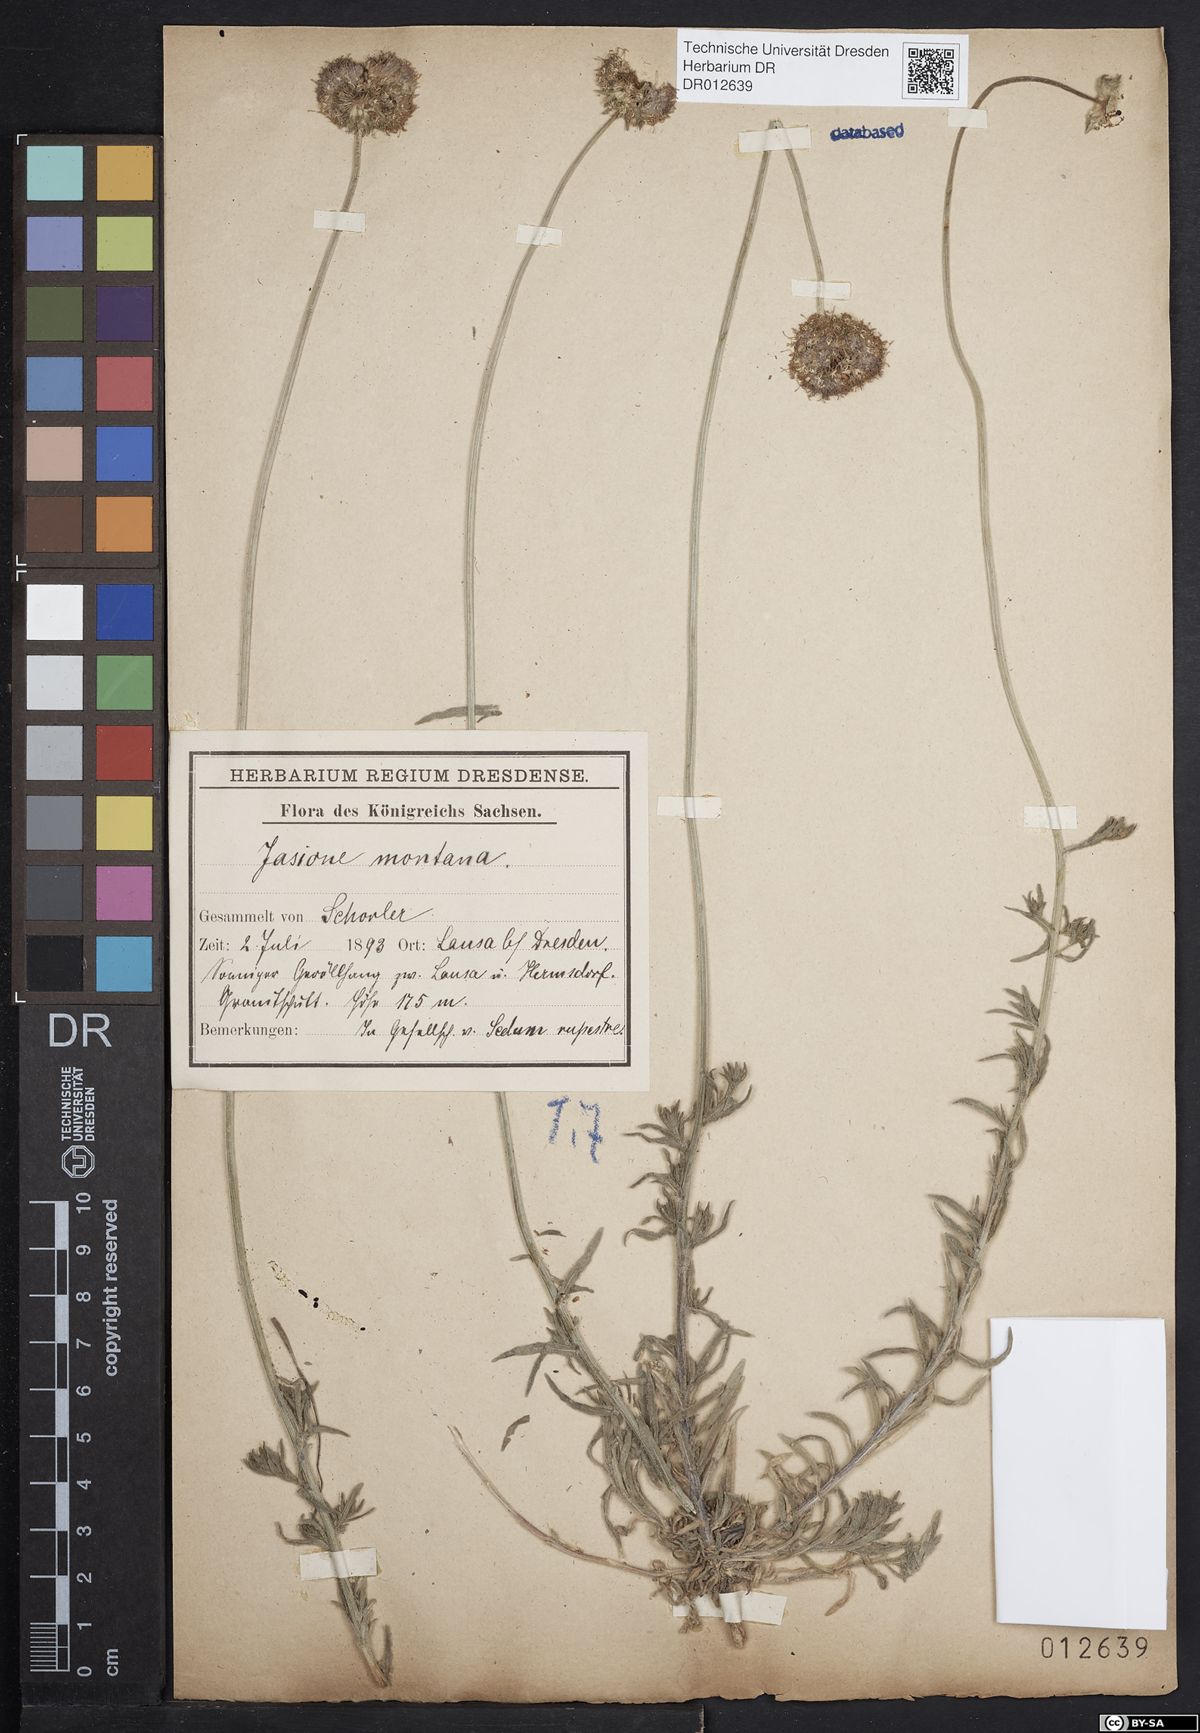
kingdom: Plantae
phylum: Tracheophyta
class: Magnoliopsida
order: Asterales
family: Campanulaceae
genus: Jasione
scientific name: Jasione montana
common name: Sheep's-bit
